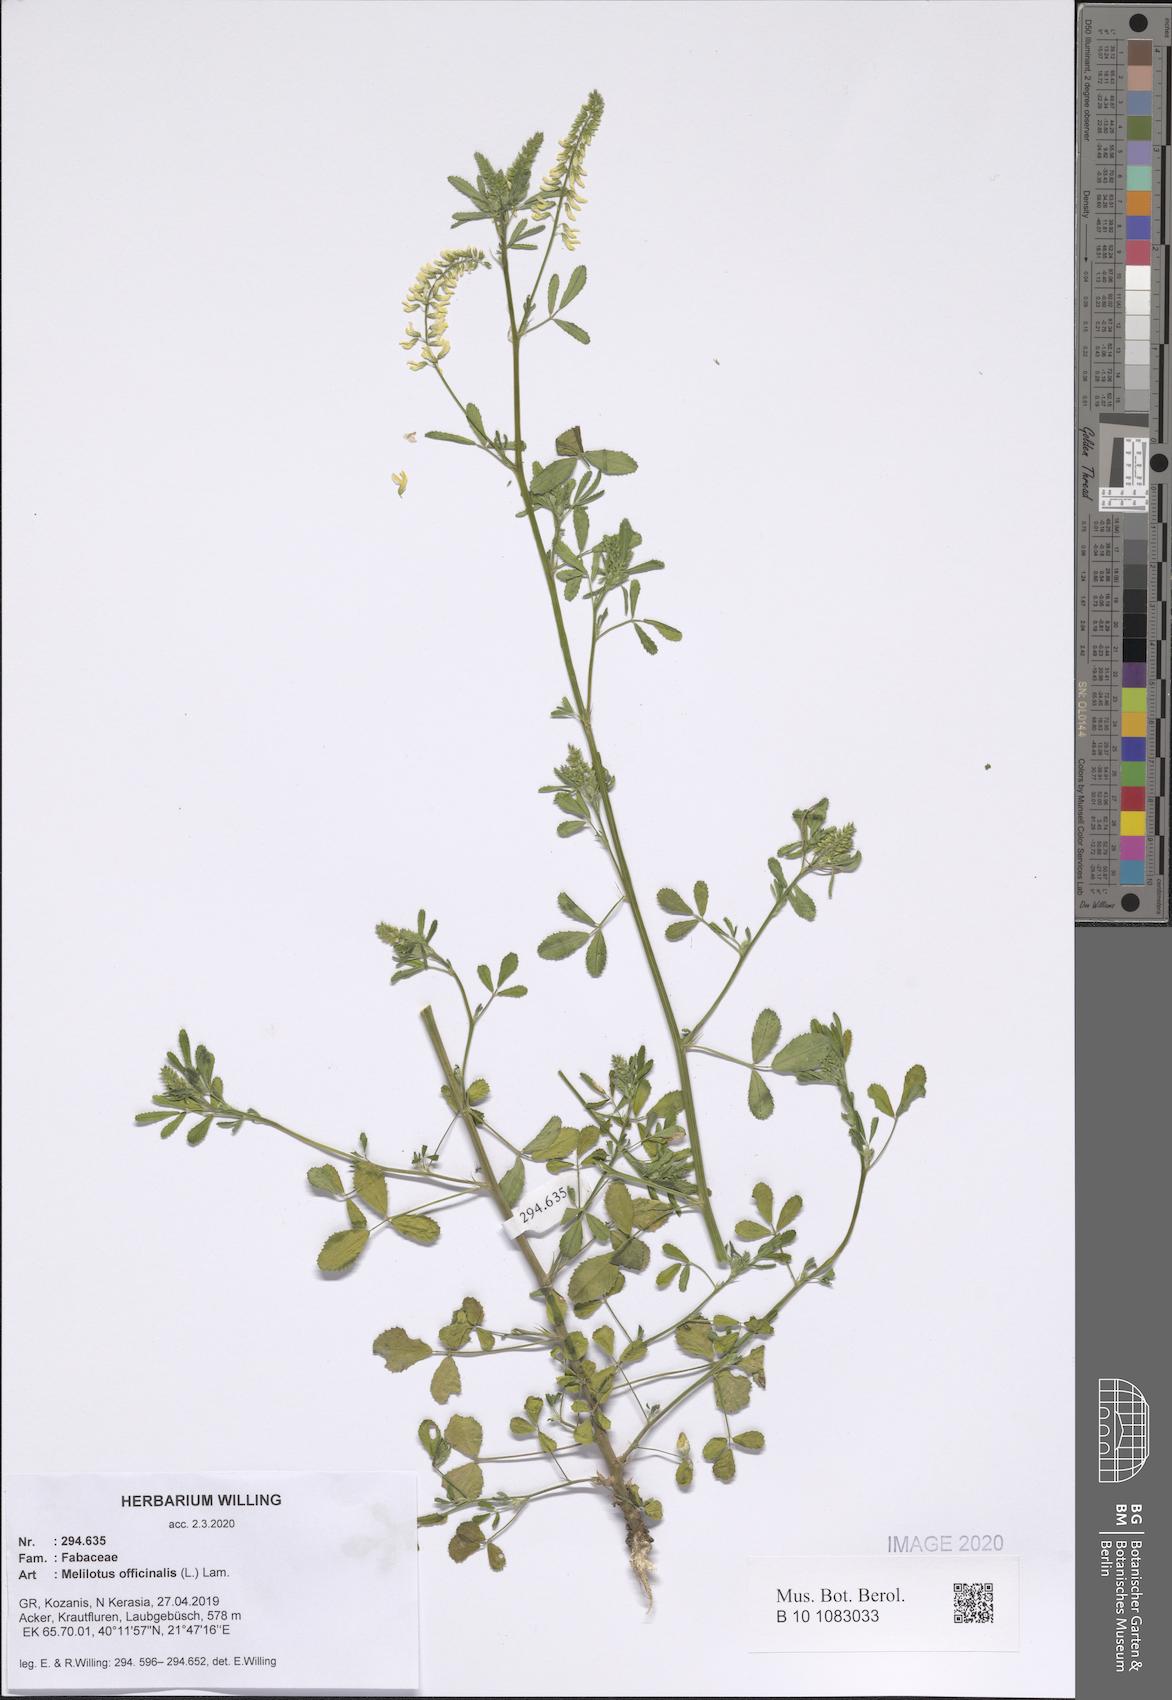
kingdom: Plantae
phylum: Tracheophyta
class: Magnoliopsida
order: Fabales
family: Fabaceae
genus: Melilotus
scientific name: Melilotus officinalis
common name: Sweetclover
